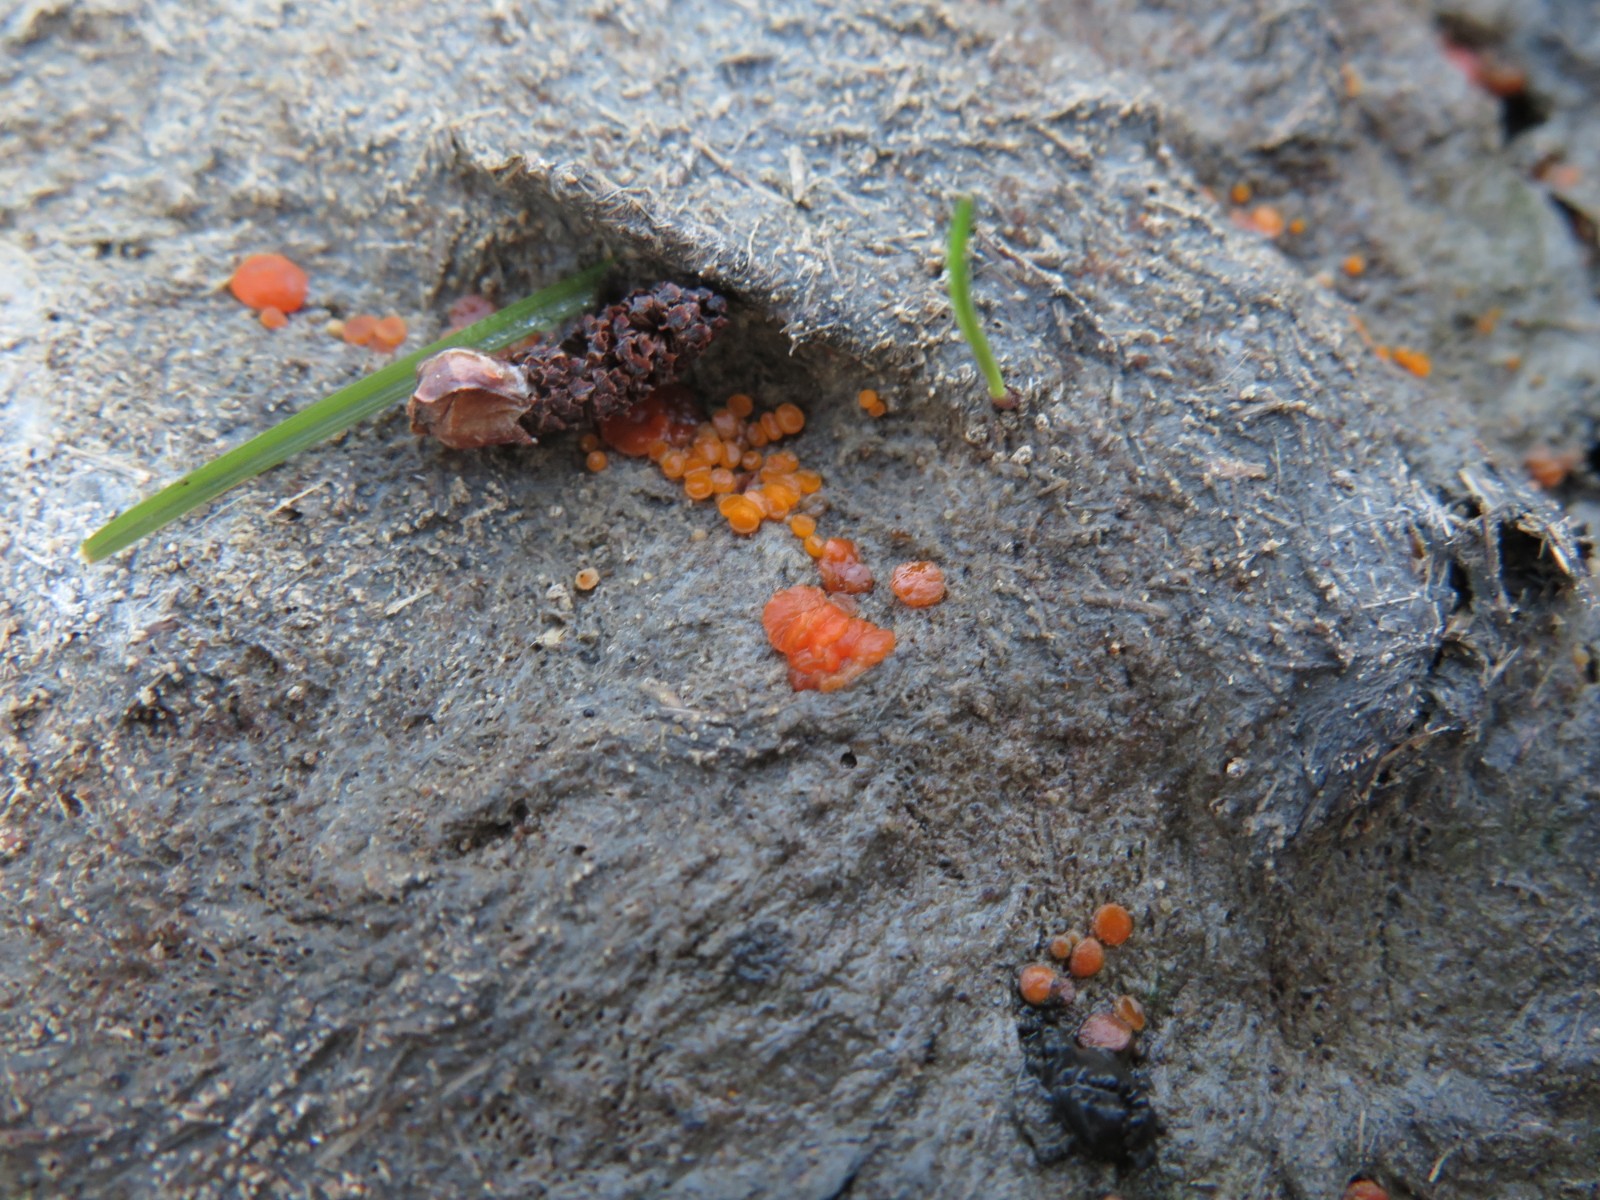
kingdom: Fungi
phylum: Ascomycota
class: Pezizomycetes
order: Pezizales
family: Pyronemataceae
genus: Cheilymenia
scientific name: Cheilymenia granulata
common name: møgbæger
